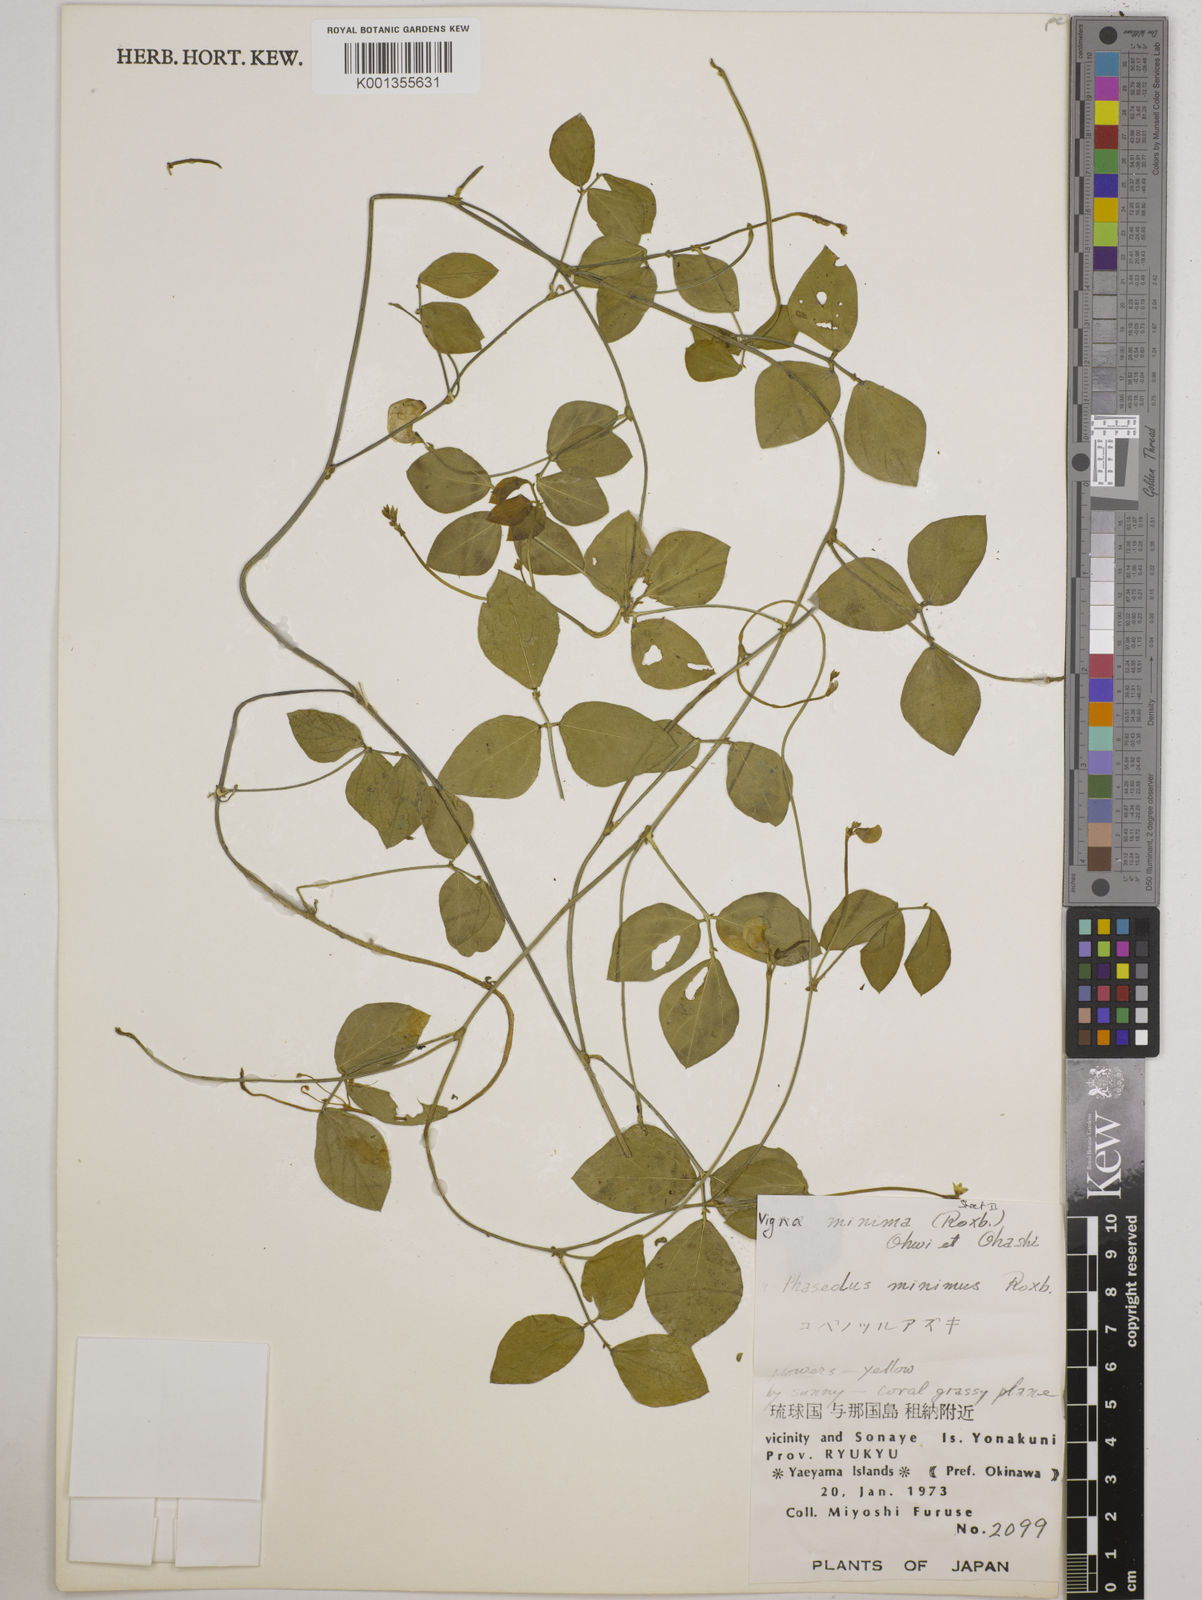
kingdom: Plantae
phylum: Tracheophyta
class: Magnoliopsida
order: Fabales
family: Fabaceae
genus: Vigna
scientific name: Vigna minima
